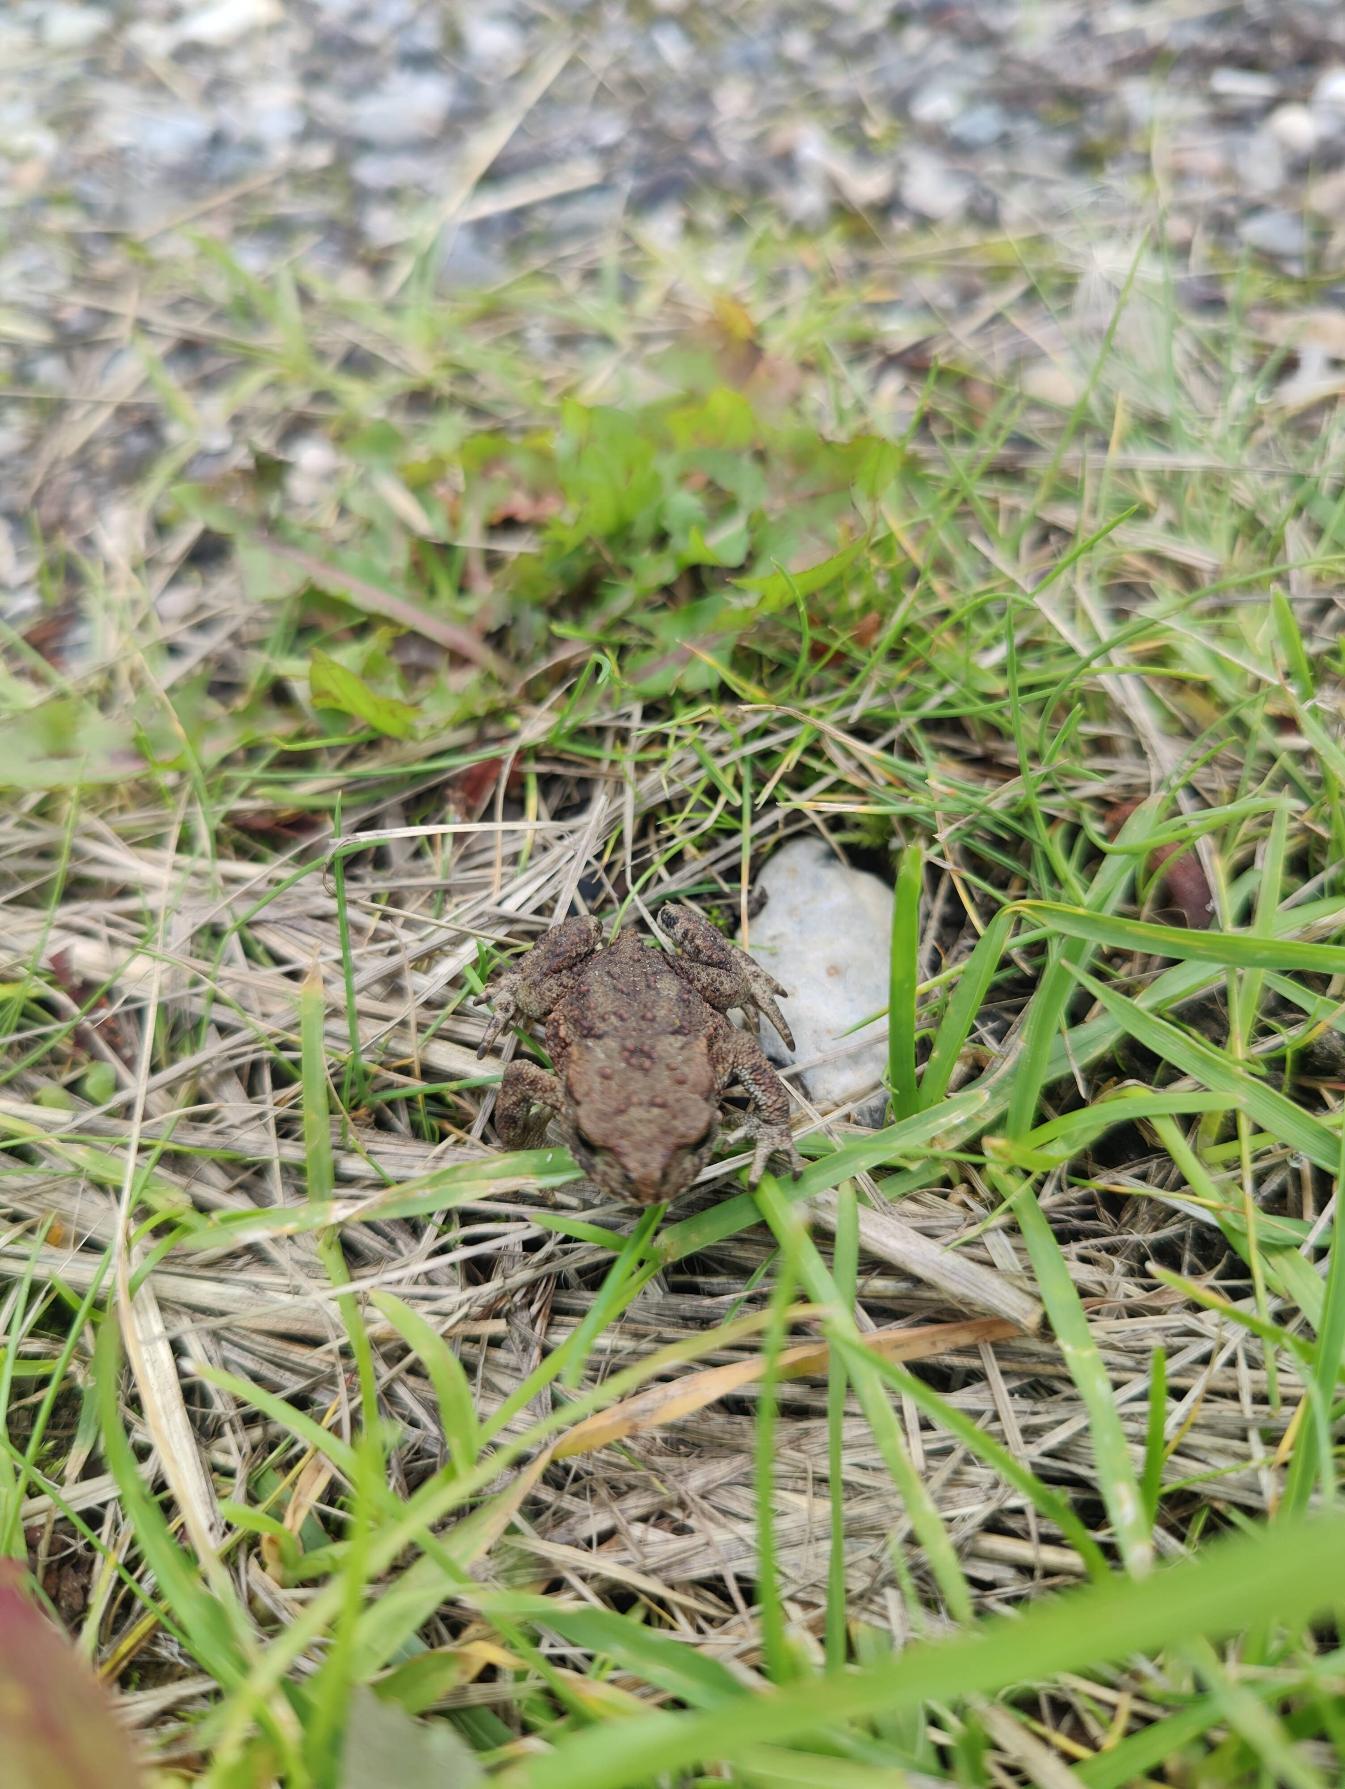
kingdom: Animalia
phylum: Chordata
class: Amphibia
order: Anura
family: Bufonidae
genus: Bufo
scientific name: Bufo bufo
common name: Skrubtudse
